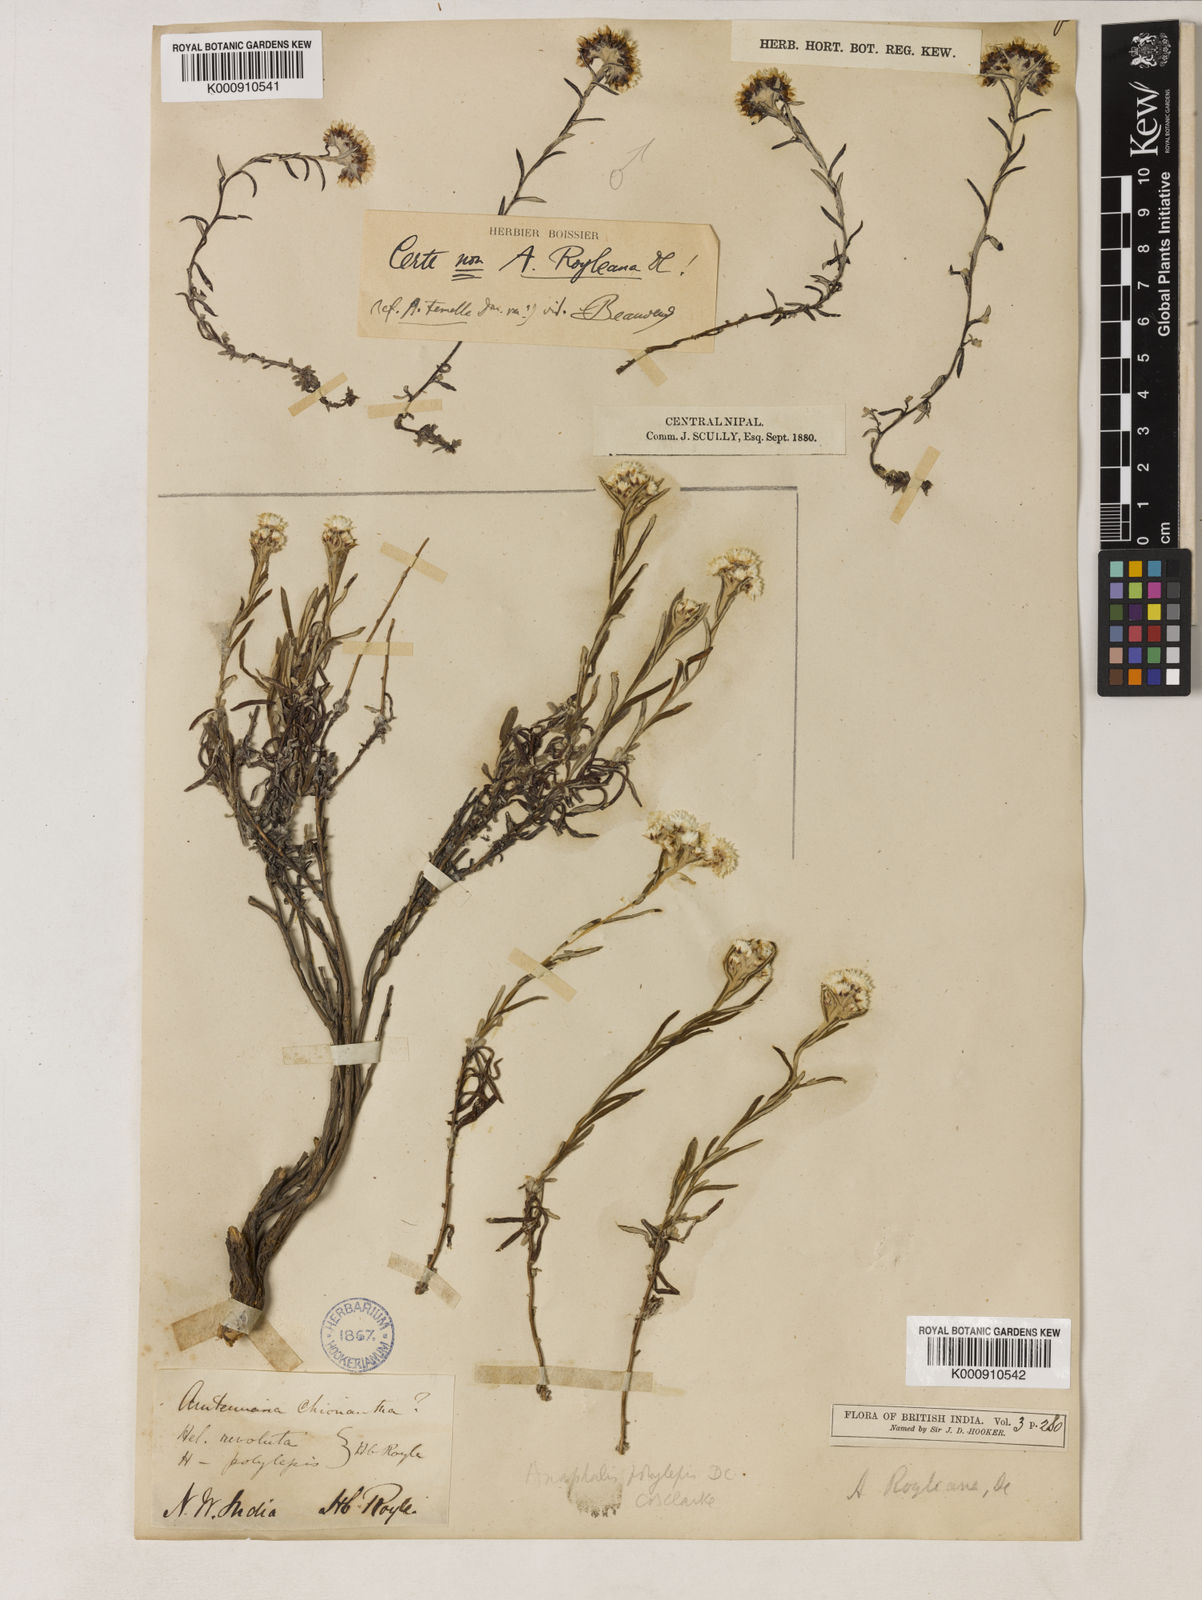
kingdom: Plantae
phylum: Tracheophyta
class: Magnoliopsida
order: Asterales
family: Asteraceae
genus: Anaphalis
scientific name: Anaphalis royleana
